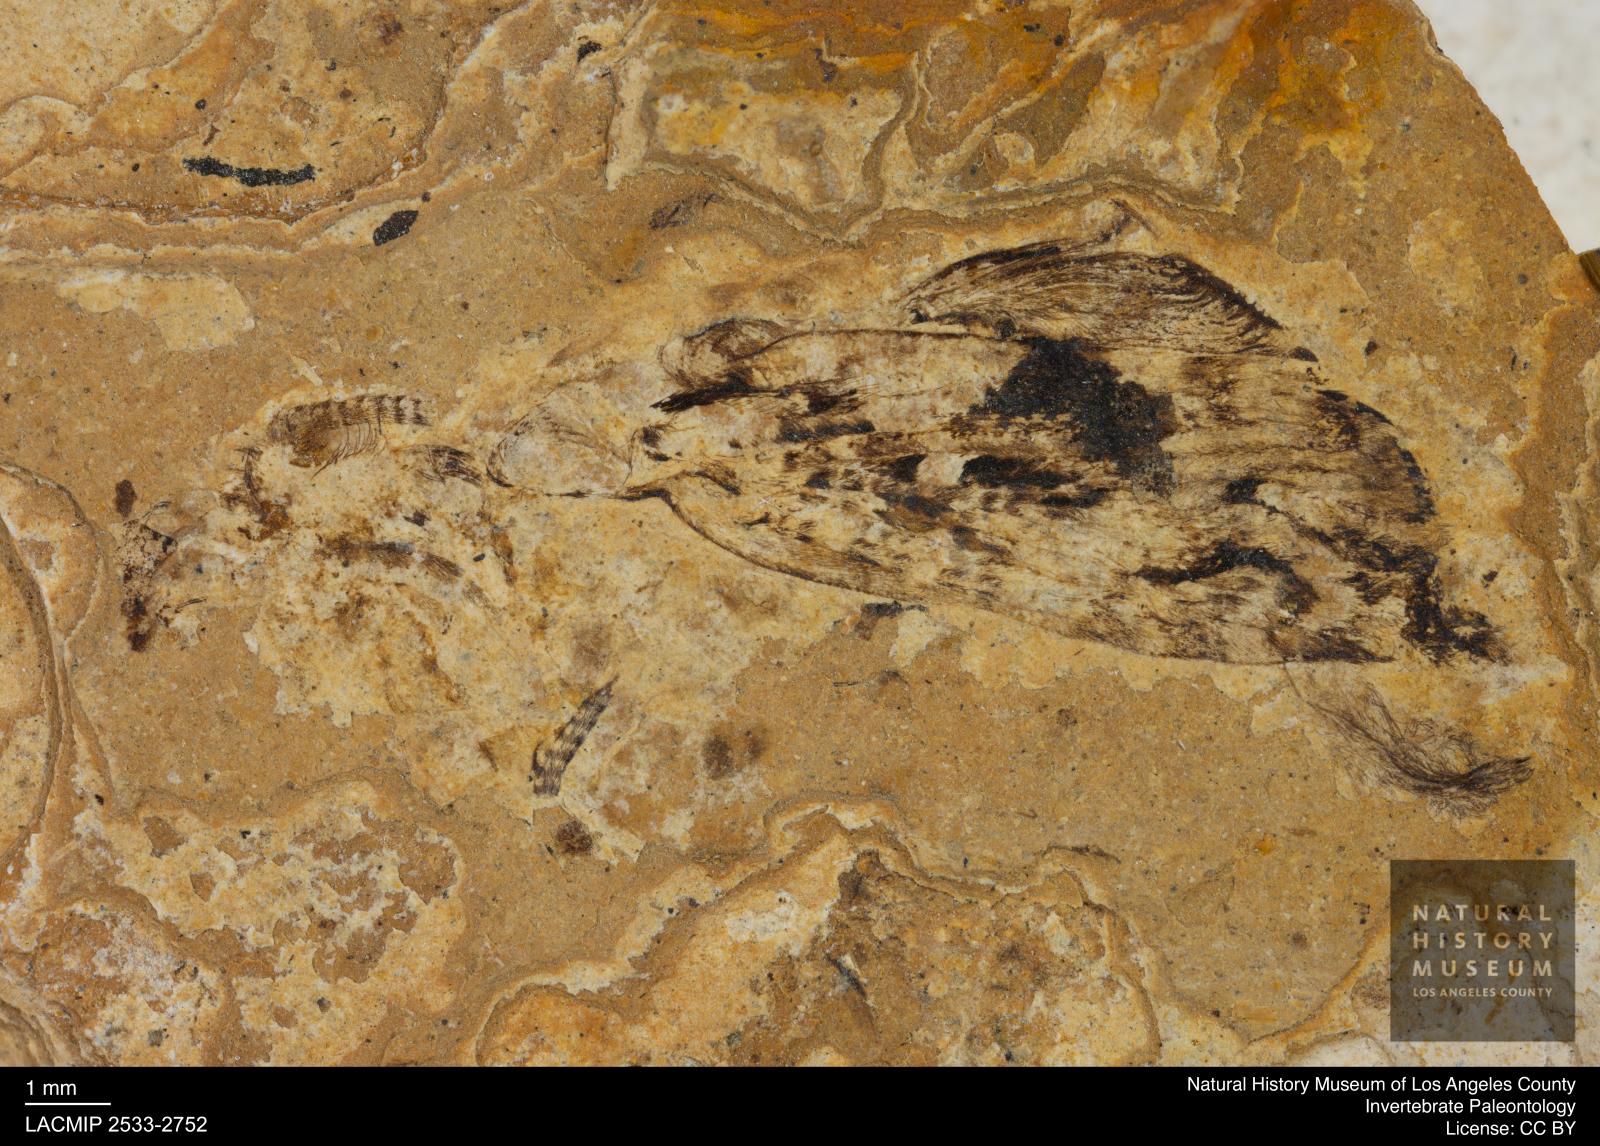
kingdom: Animalia
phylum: Arthropoda
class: Insecta
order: Trichoptera
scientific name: Trichoptera
